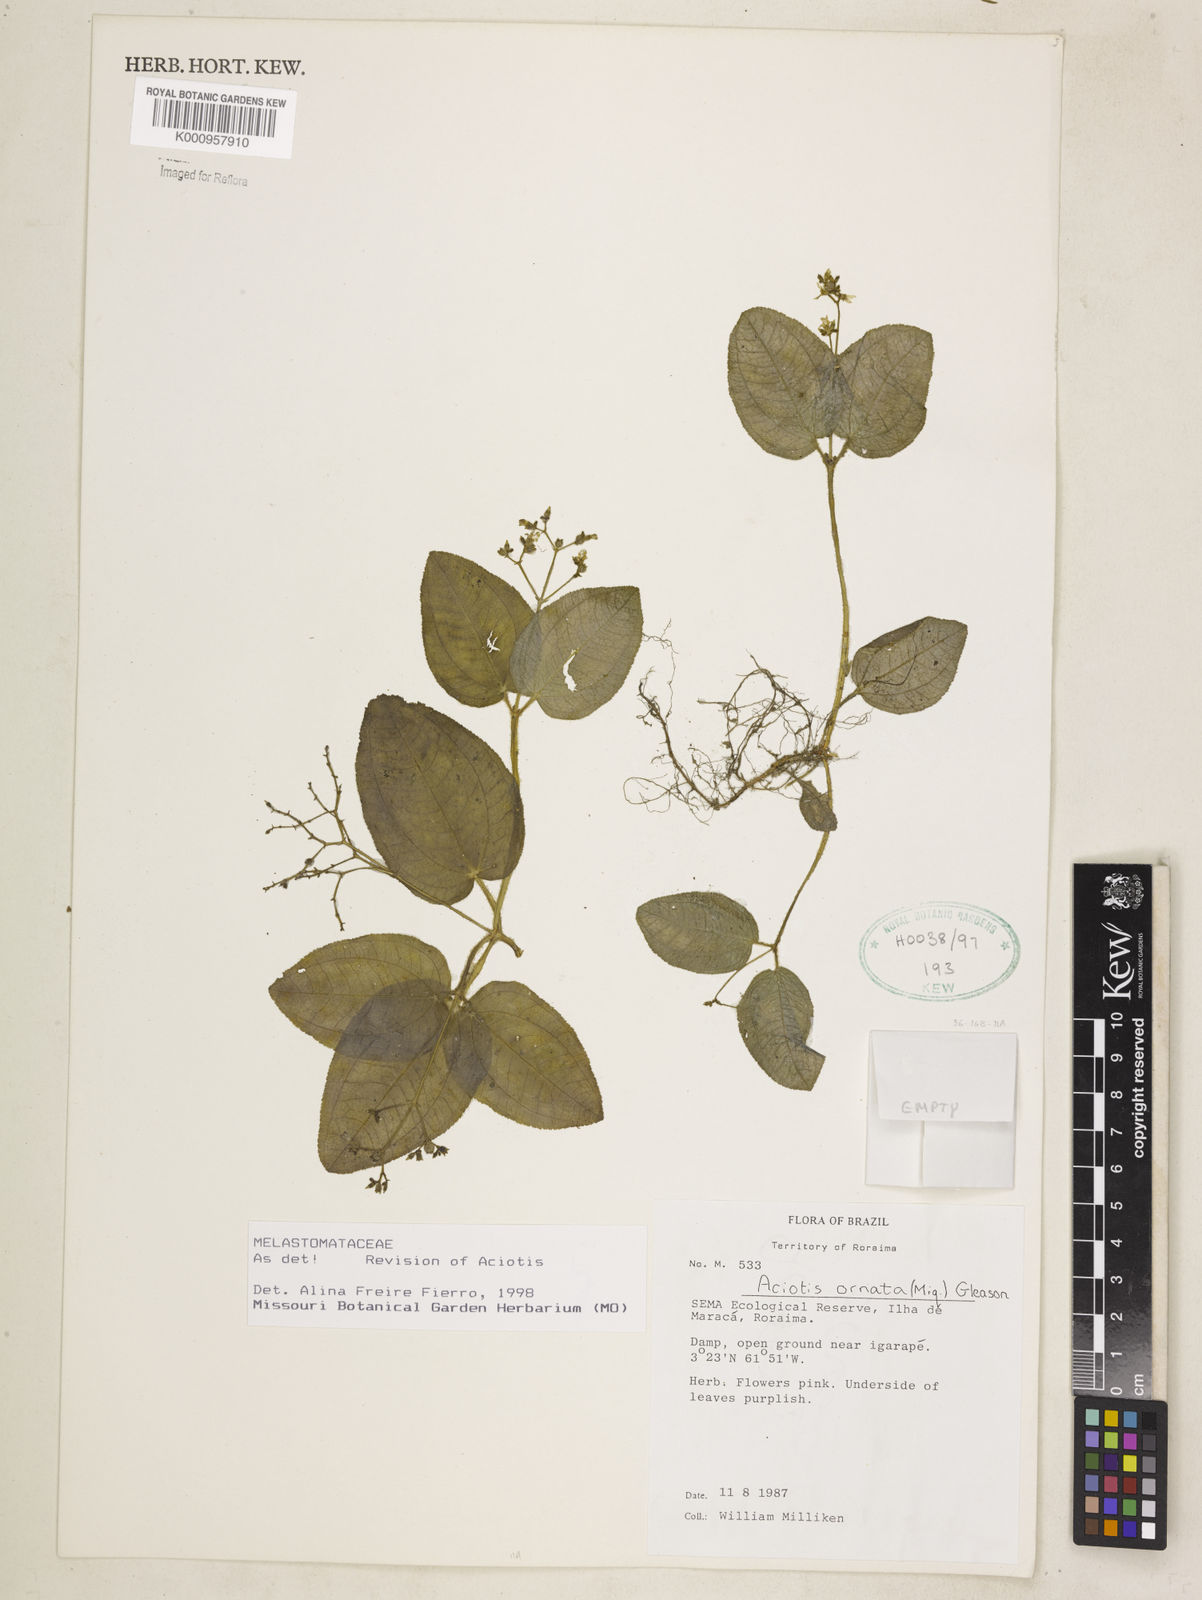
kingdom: Plantae
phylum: Tracheophyta
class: Magnoliopsida
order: Myrtales
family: Melastomataceae
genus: Aciotis
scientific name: Aciotis ornata
